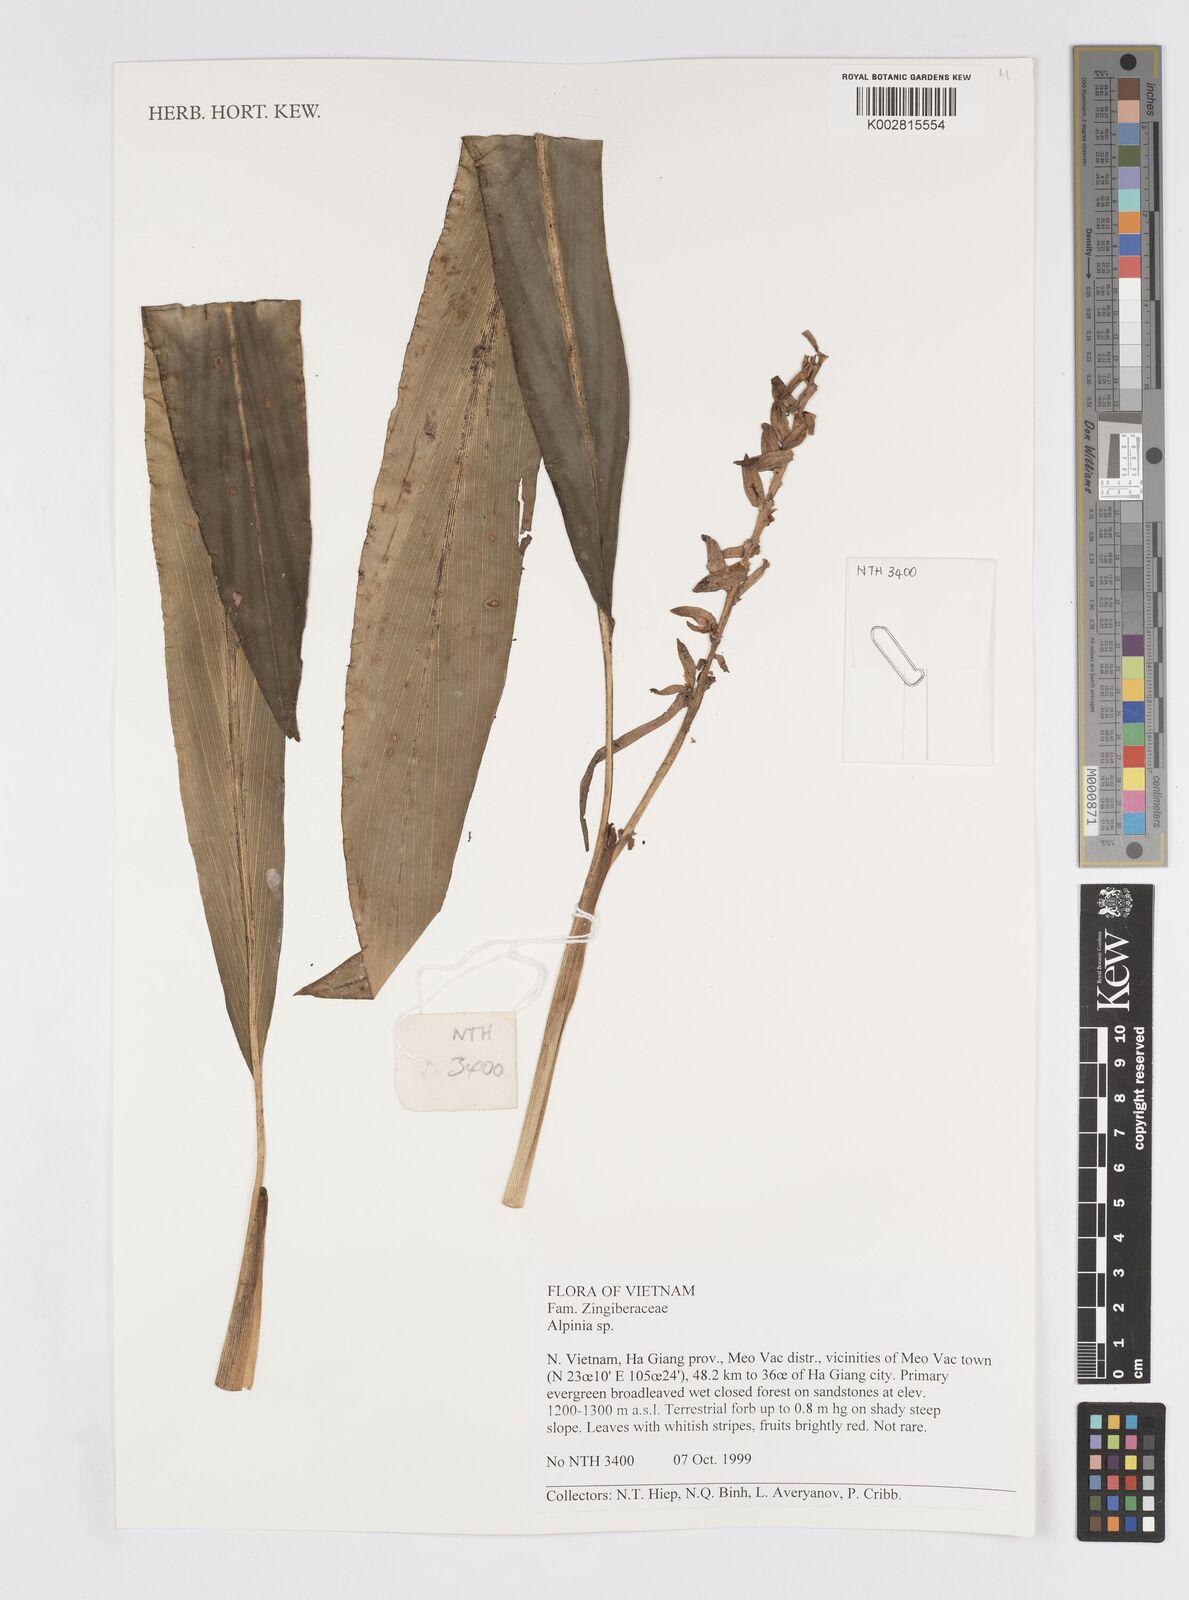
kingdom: Plantae
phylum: Tracheophyta
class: Liliopsida
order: Zingiberales
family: Zingiberaceae
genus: Alpinia
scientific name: Alpinia
